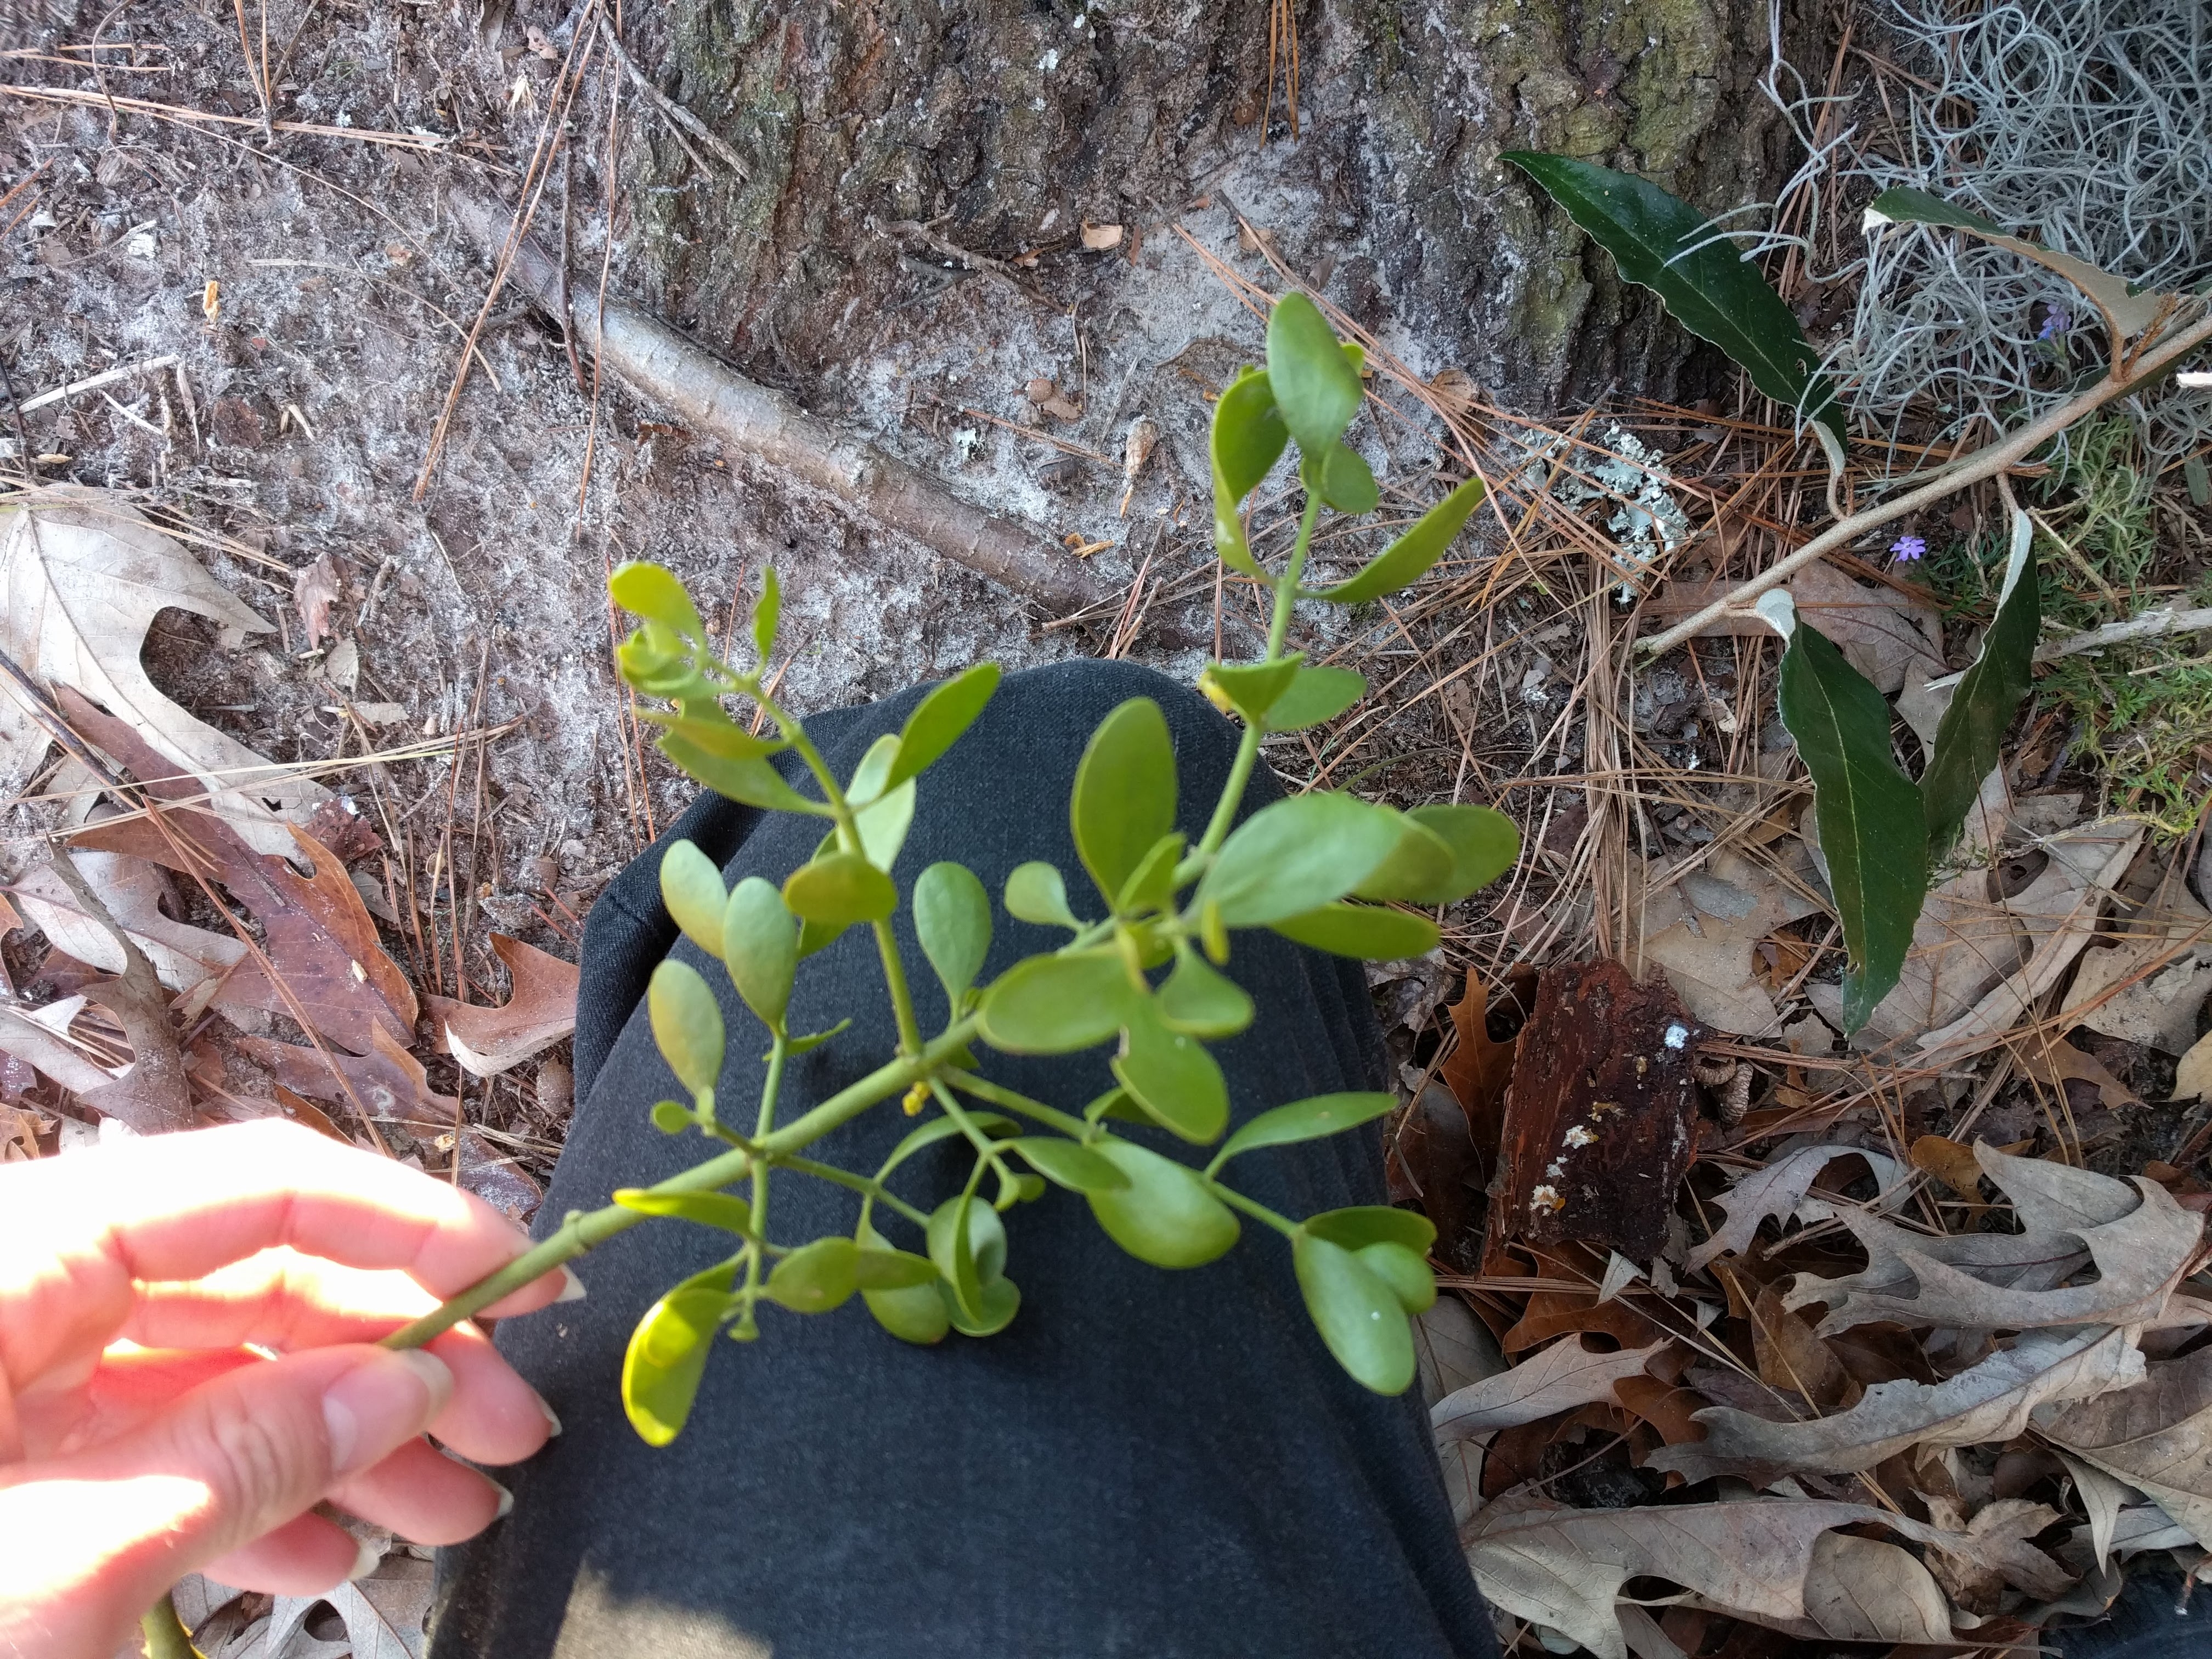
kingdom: Plantae
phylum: Tracheophyta
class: Magnoliopsida
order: Santalales
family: Viscaceae
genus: Phoradendron
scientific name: Phoradendron leucarpum
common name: Pacific mistletoe
